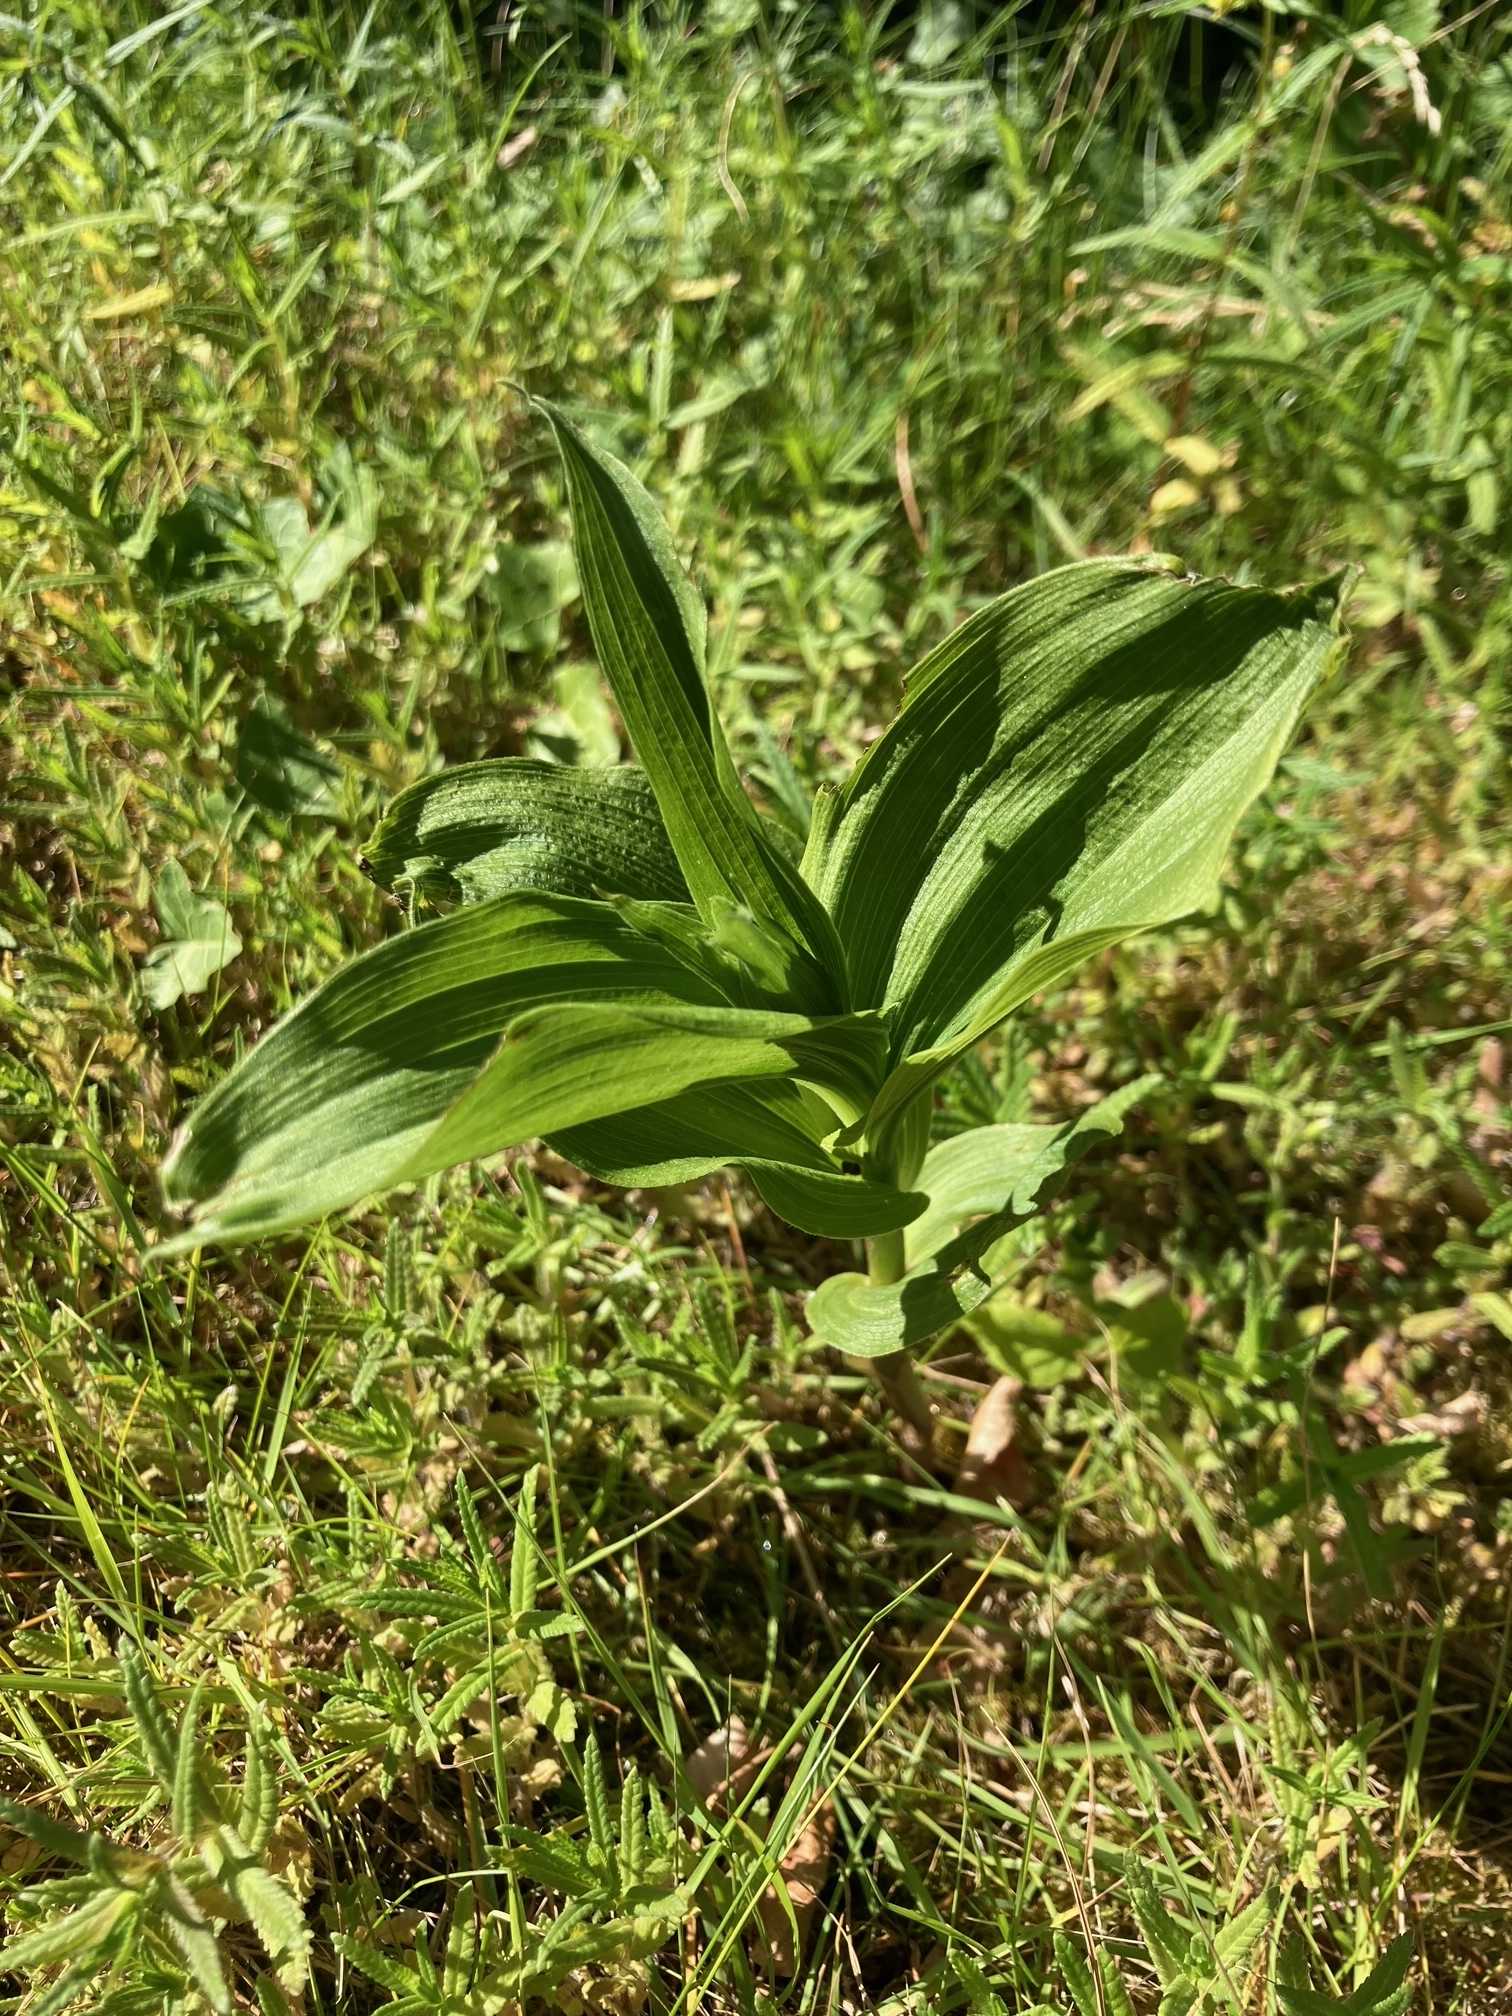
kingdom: Plantae
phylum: Tracheophyta
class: Liliopsida
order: Asparagales
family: Orchidaceae
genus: Epipactis
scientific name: Epipactis helleborine
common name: Skov-hullæbe
